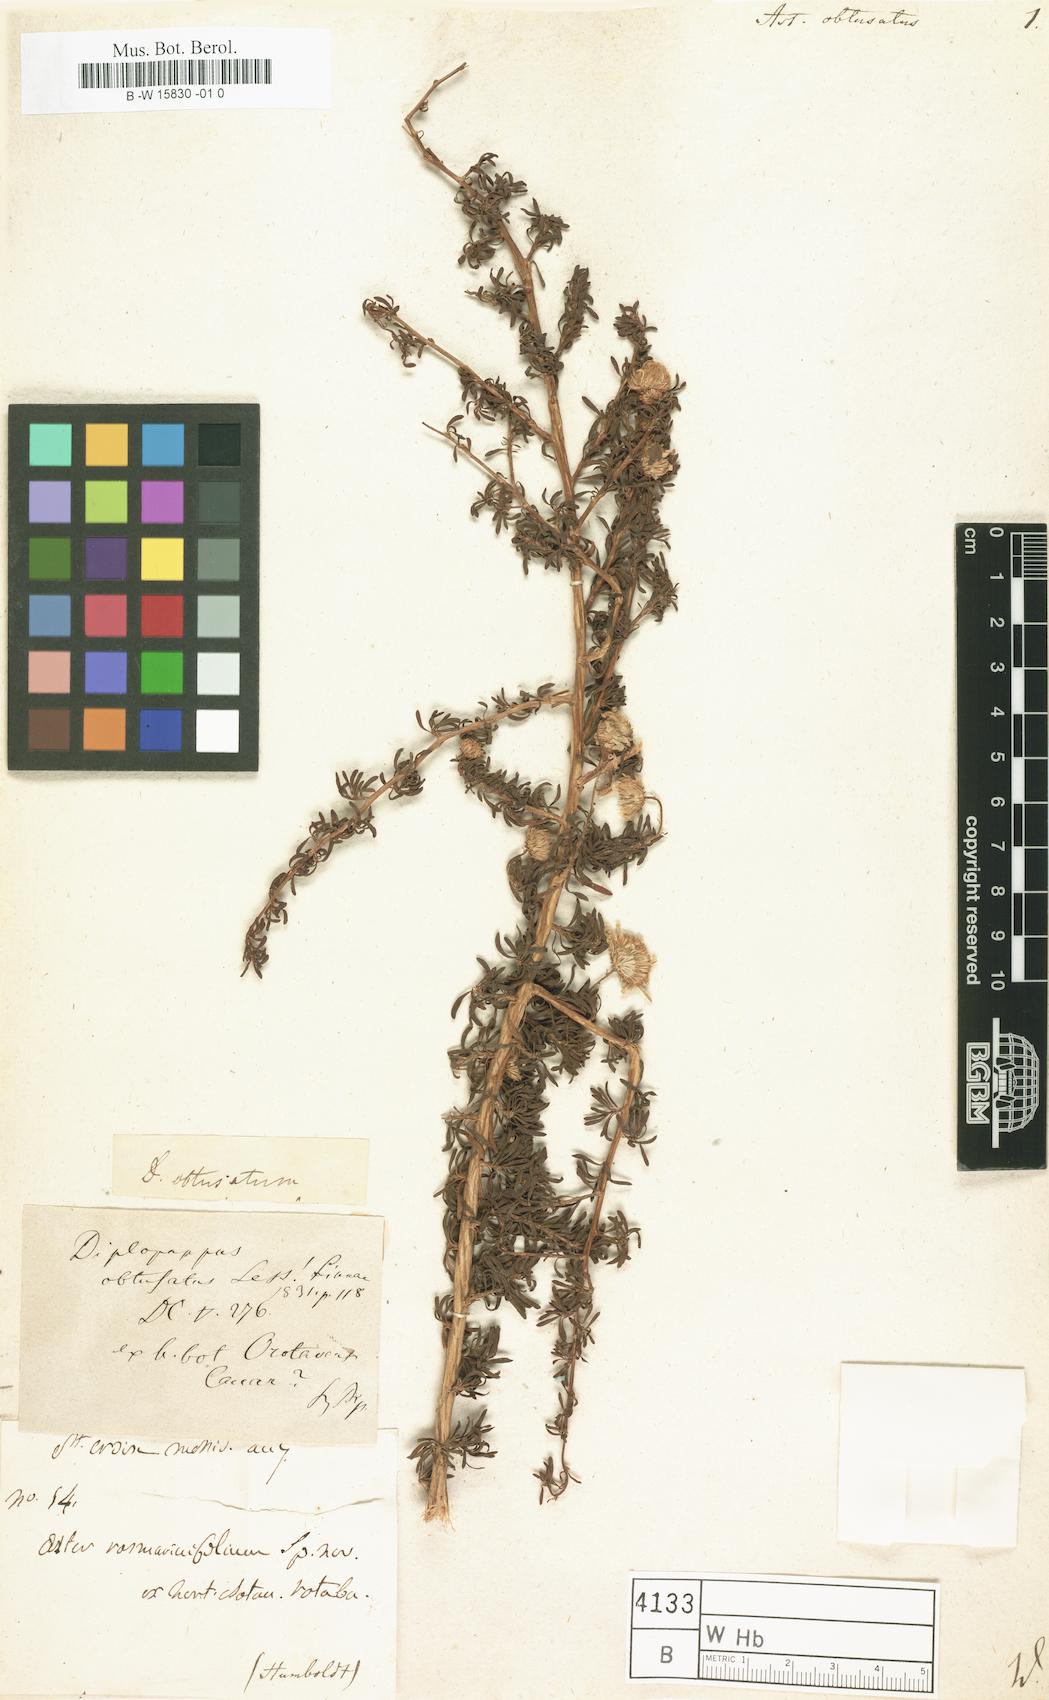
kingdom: Plantae
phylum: Tracheophyta
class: Magnoliopsida
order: Asterales
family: Asteraceae
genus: Chrysocoma
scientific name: Chrysocoma obtusata
